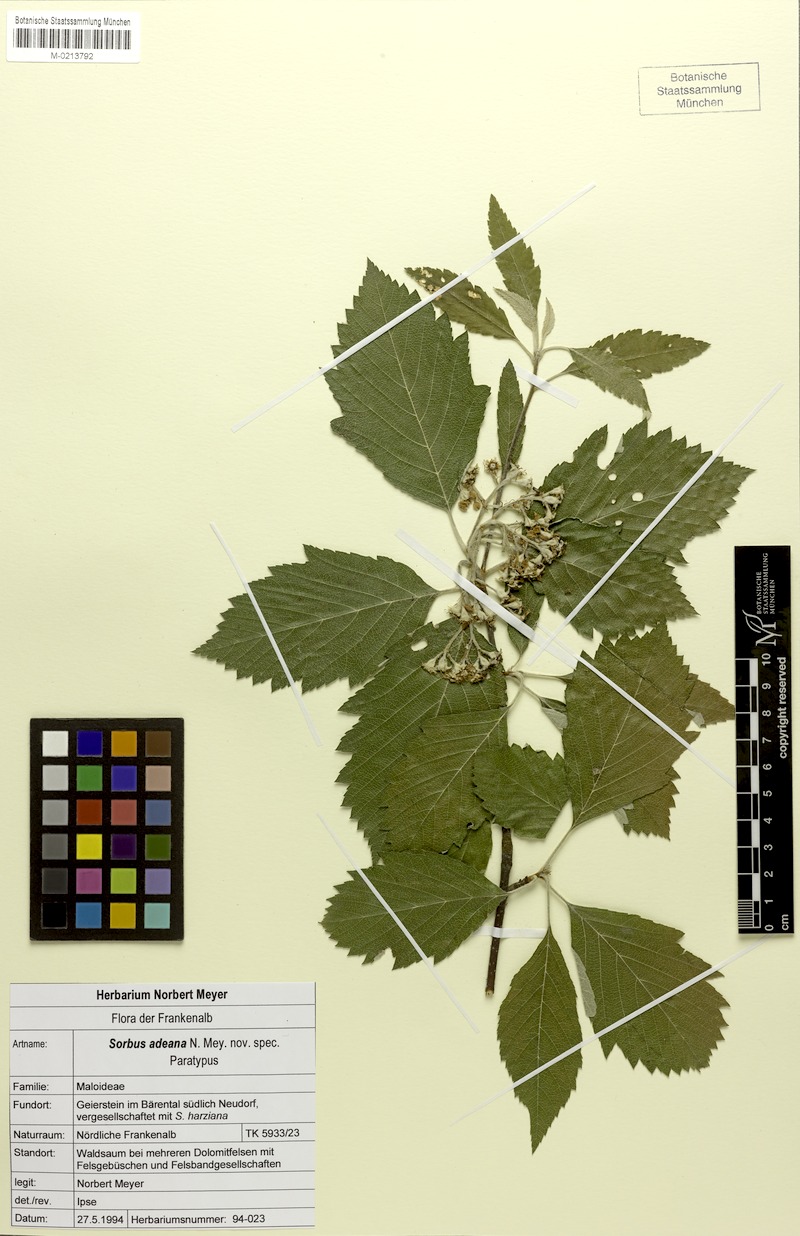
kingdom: Plantae
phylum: Tracheophyta
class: Magnoliopsida
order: Rosales
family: Rosaceae
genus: Karpatiosorbus
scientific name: Karpatiosorbus adeana
